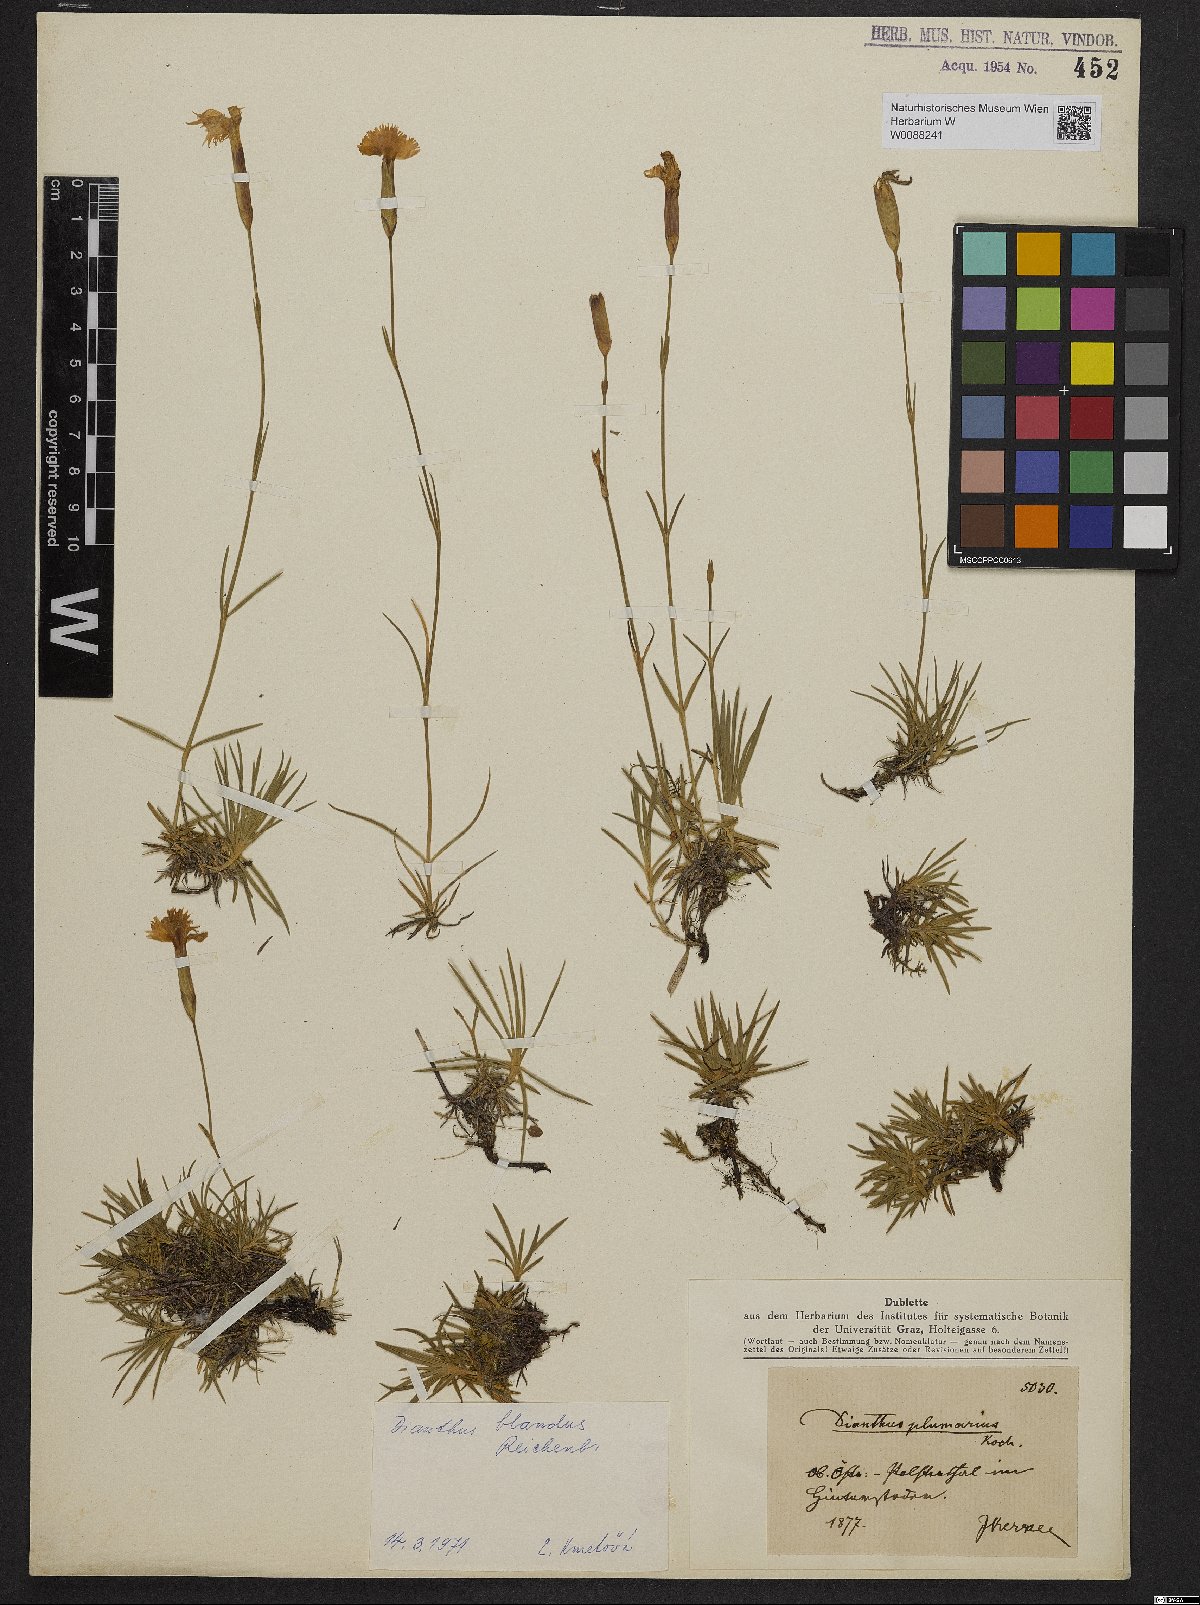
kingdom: Plantae
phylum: Tracheophyta
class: Magnoliopsida
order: Caryophyllales
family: Caryophyllaceae
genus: Dianthus
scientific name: Dianthus plumarius
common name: Pink
